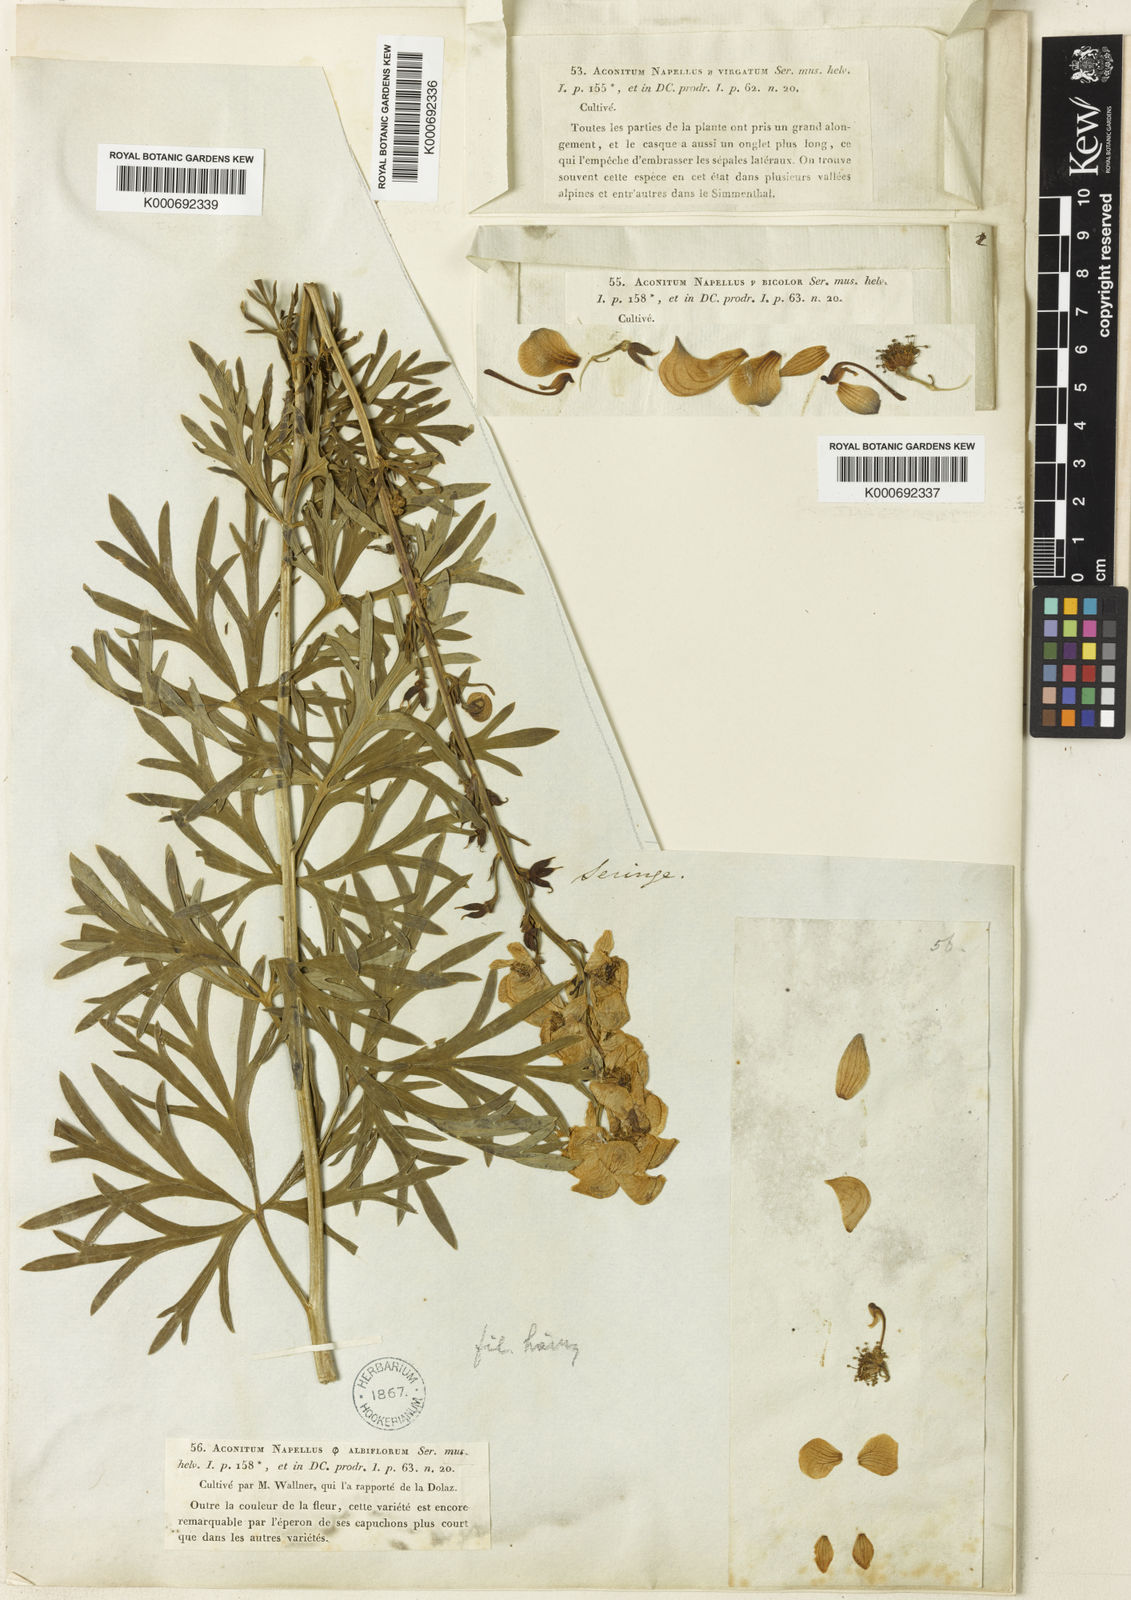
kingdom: Plantae
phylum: Tracheophyta
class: Magnoliopsida
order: Ranunculales
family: Ranunculaceae
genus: Aconitum
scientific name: Aconitum napellus
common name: Garden monkshood
